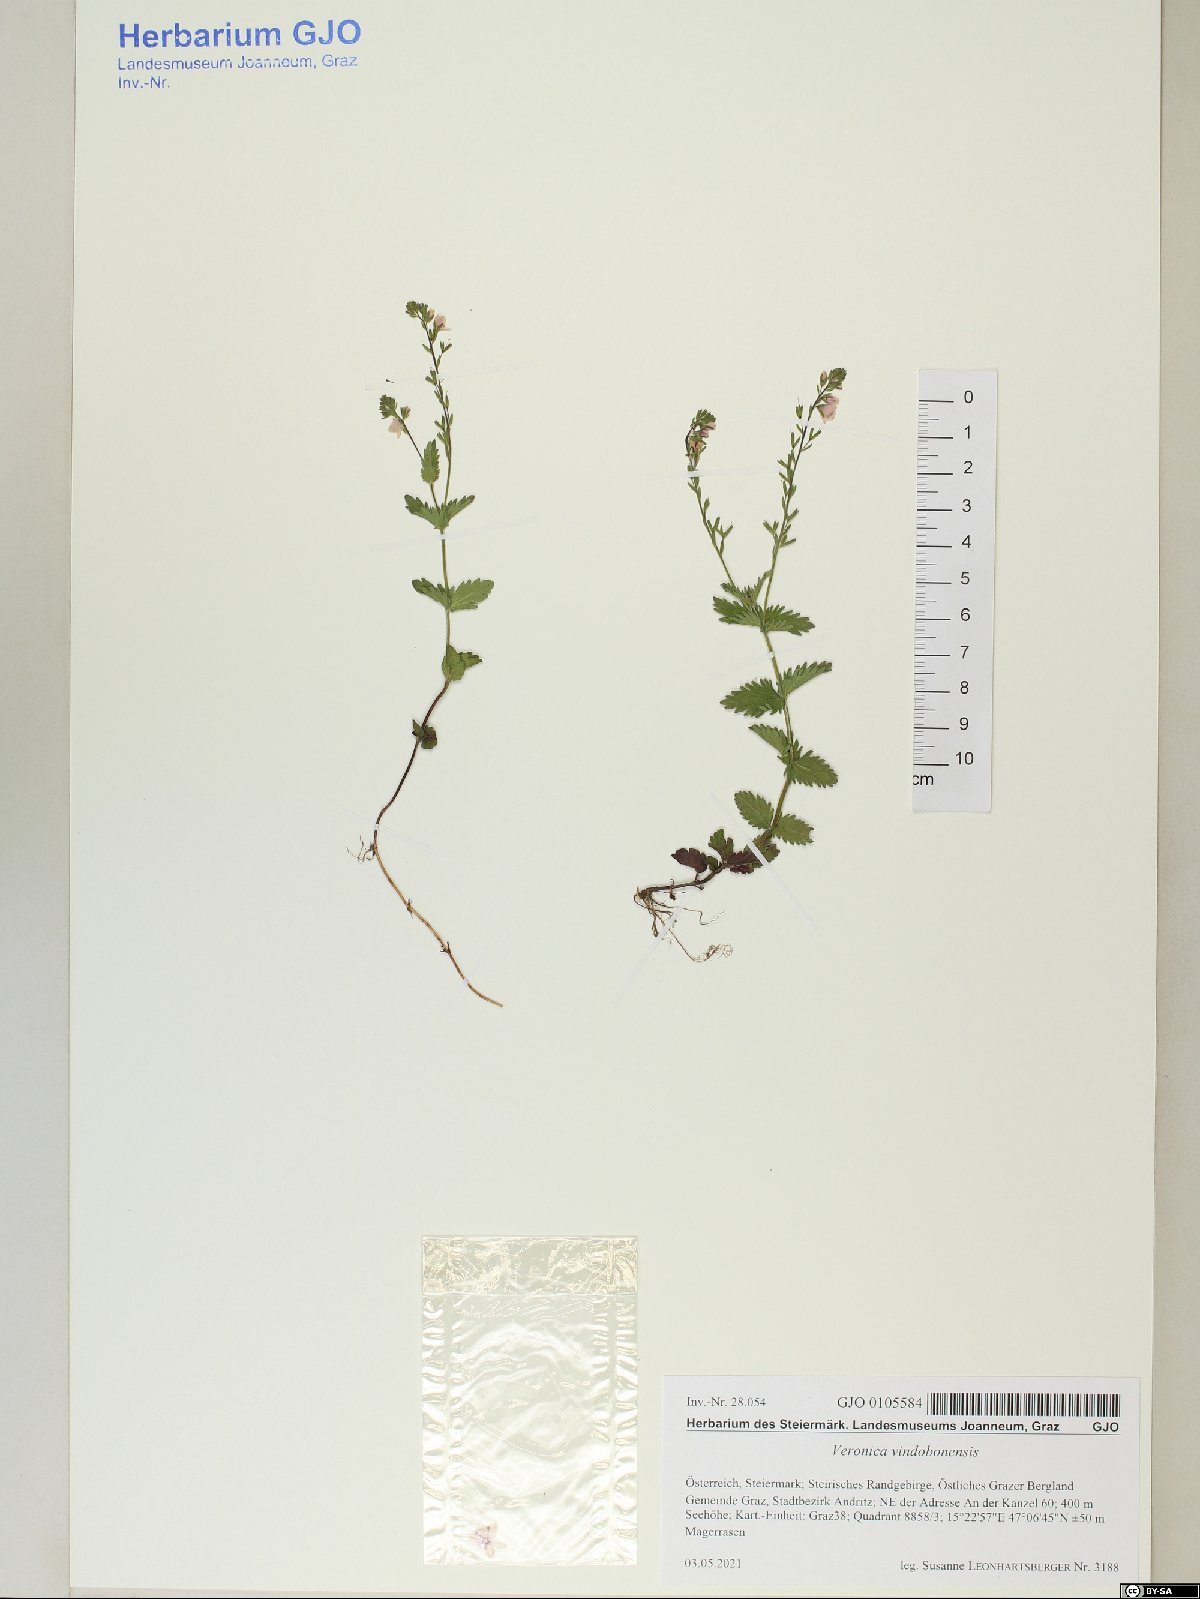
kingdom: Plantae
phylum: Tracheophyta
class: Magnoliopsida
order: Lamiales
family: Plantaginaceae
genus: Veronica
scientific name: Veronica vindobonensis
